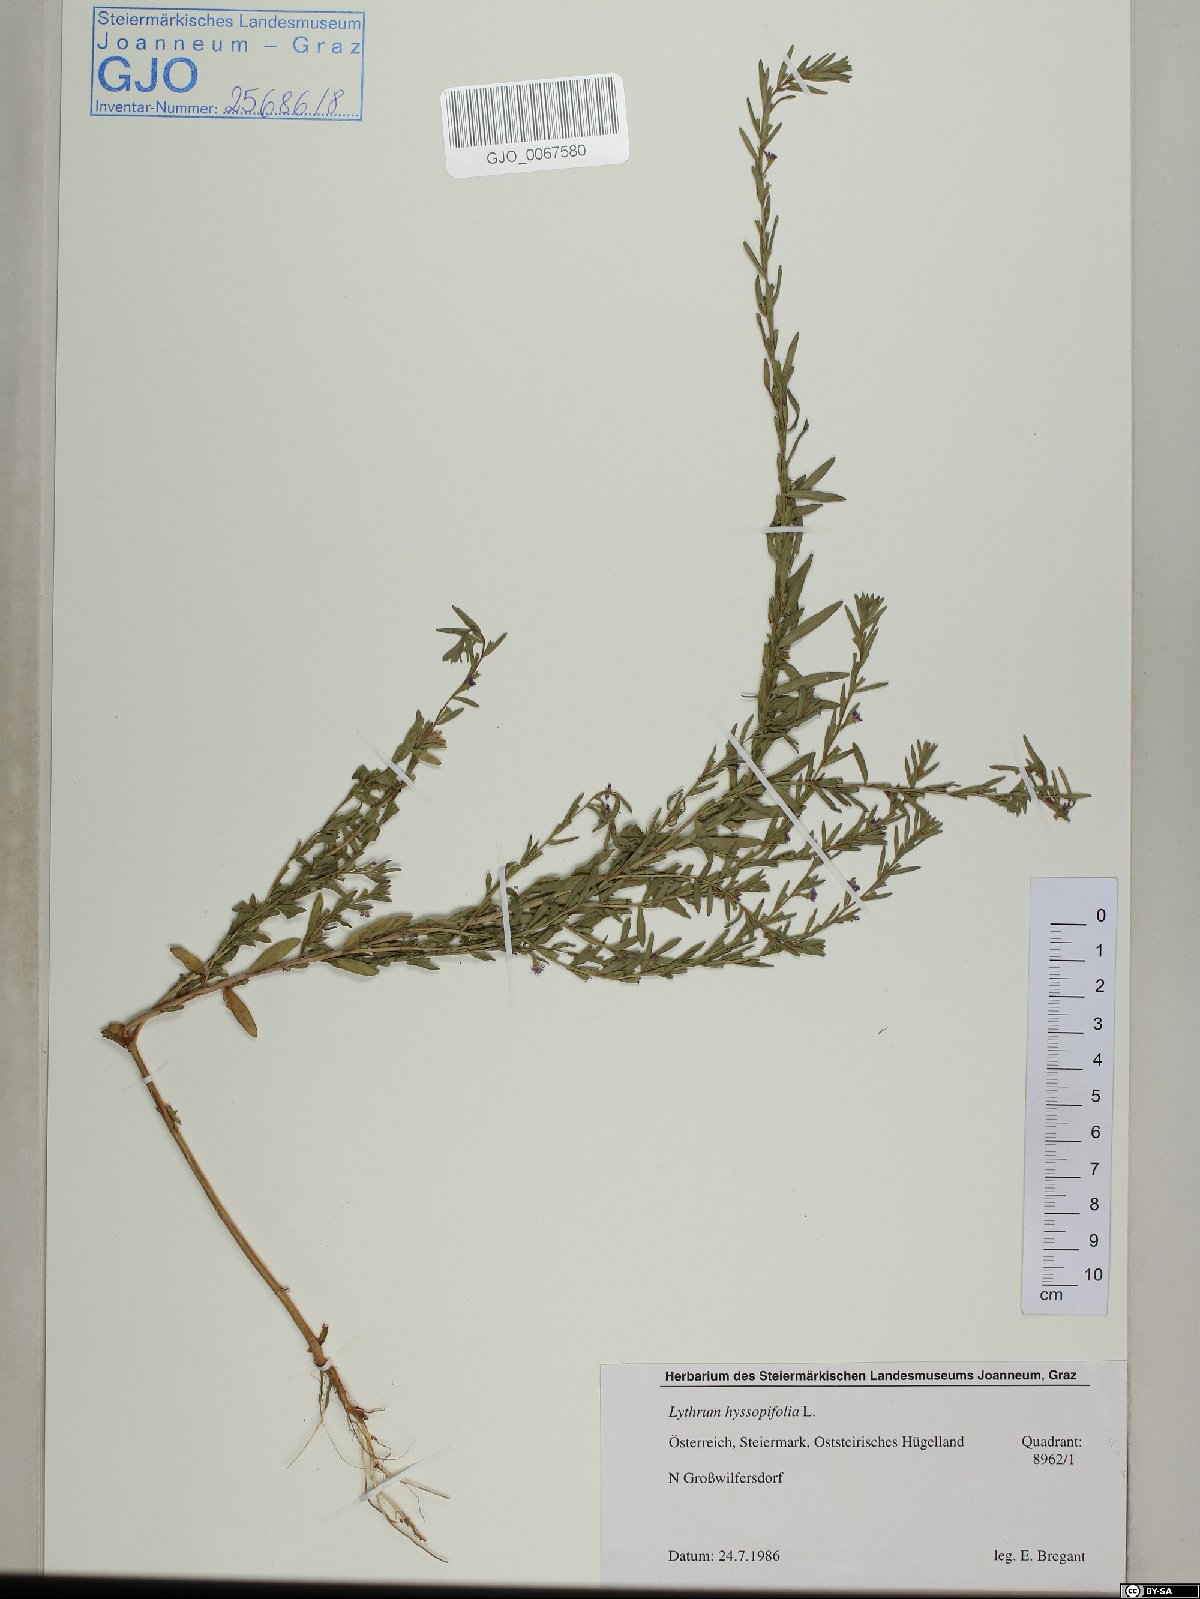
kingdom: Plantae
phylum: Tracheophyta
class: Magnoliopsida
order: Myrtales
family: Lythraceae
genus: Lythrum
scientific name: Lythrum hyssopifolia
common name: Grass-poly
